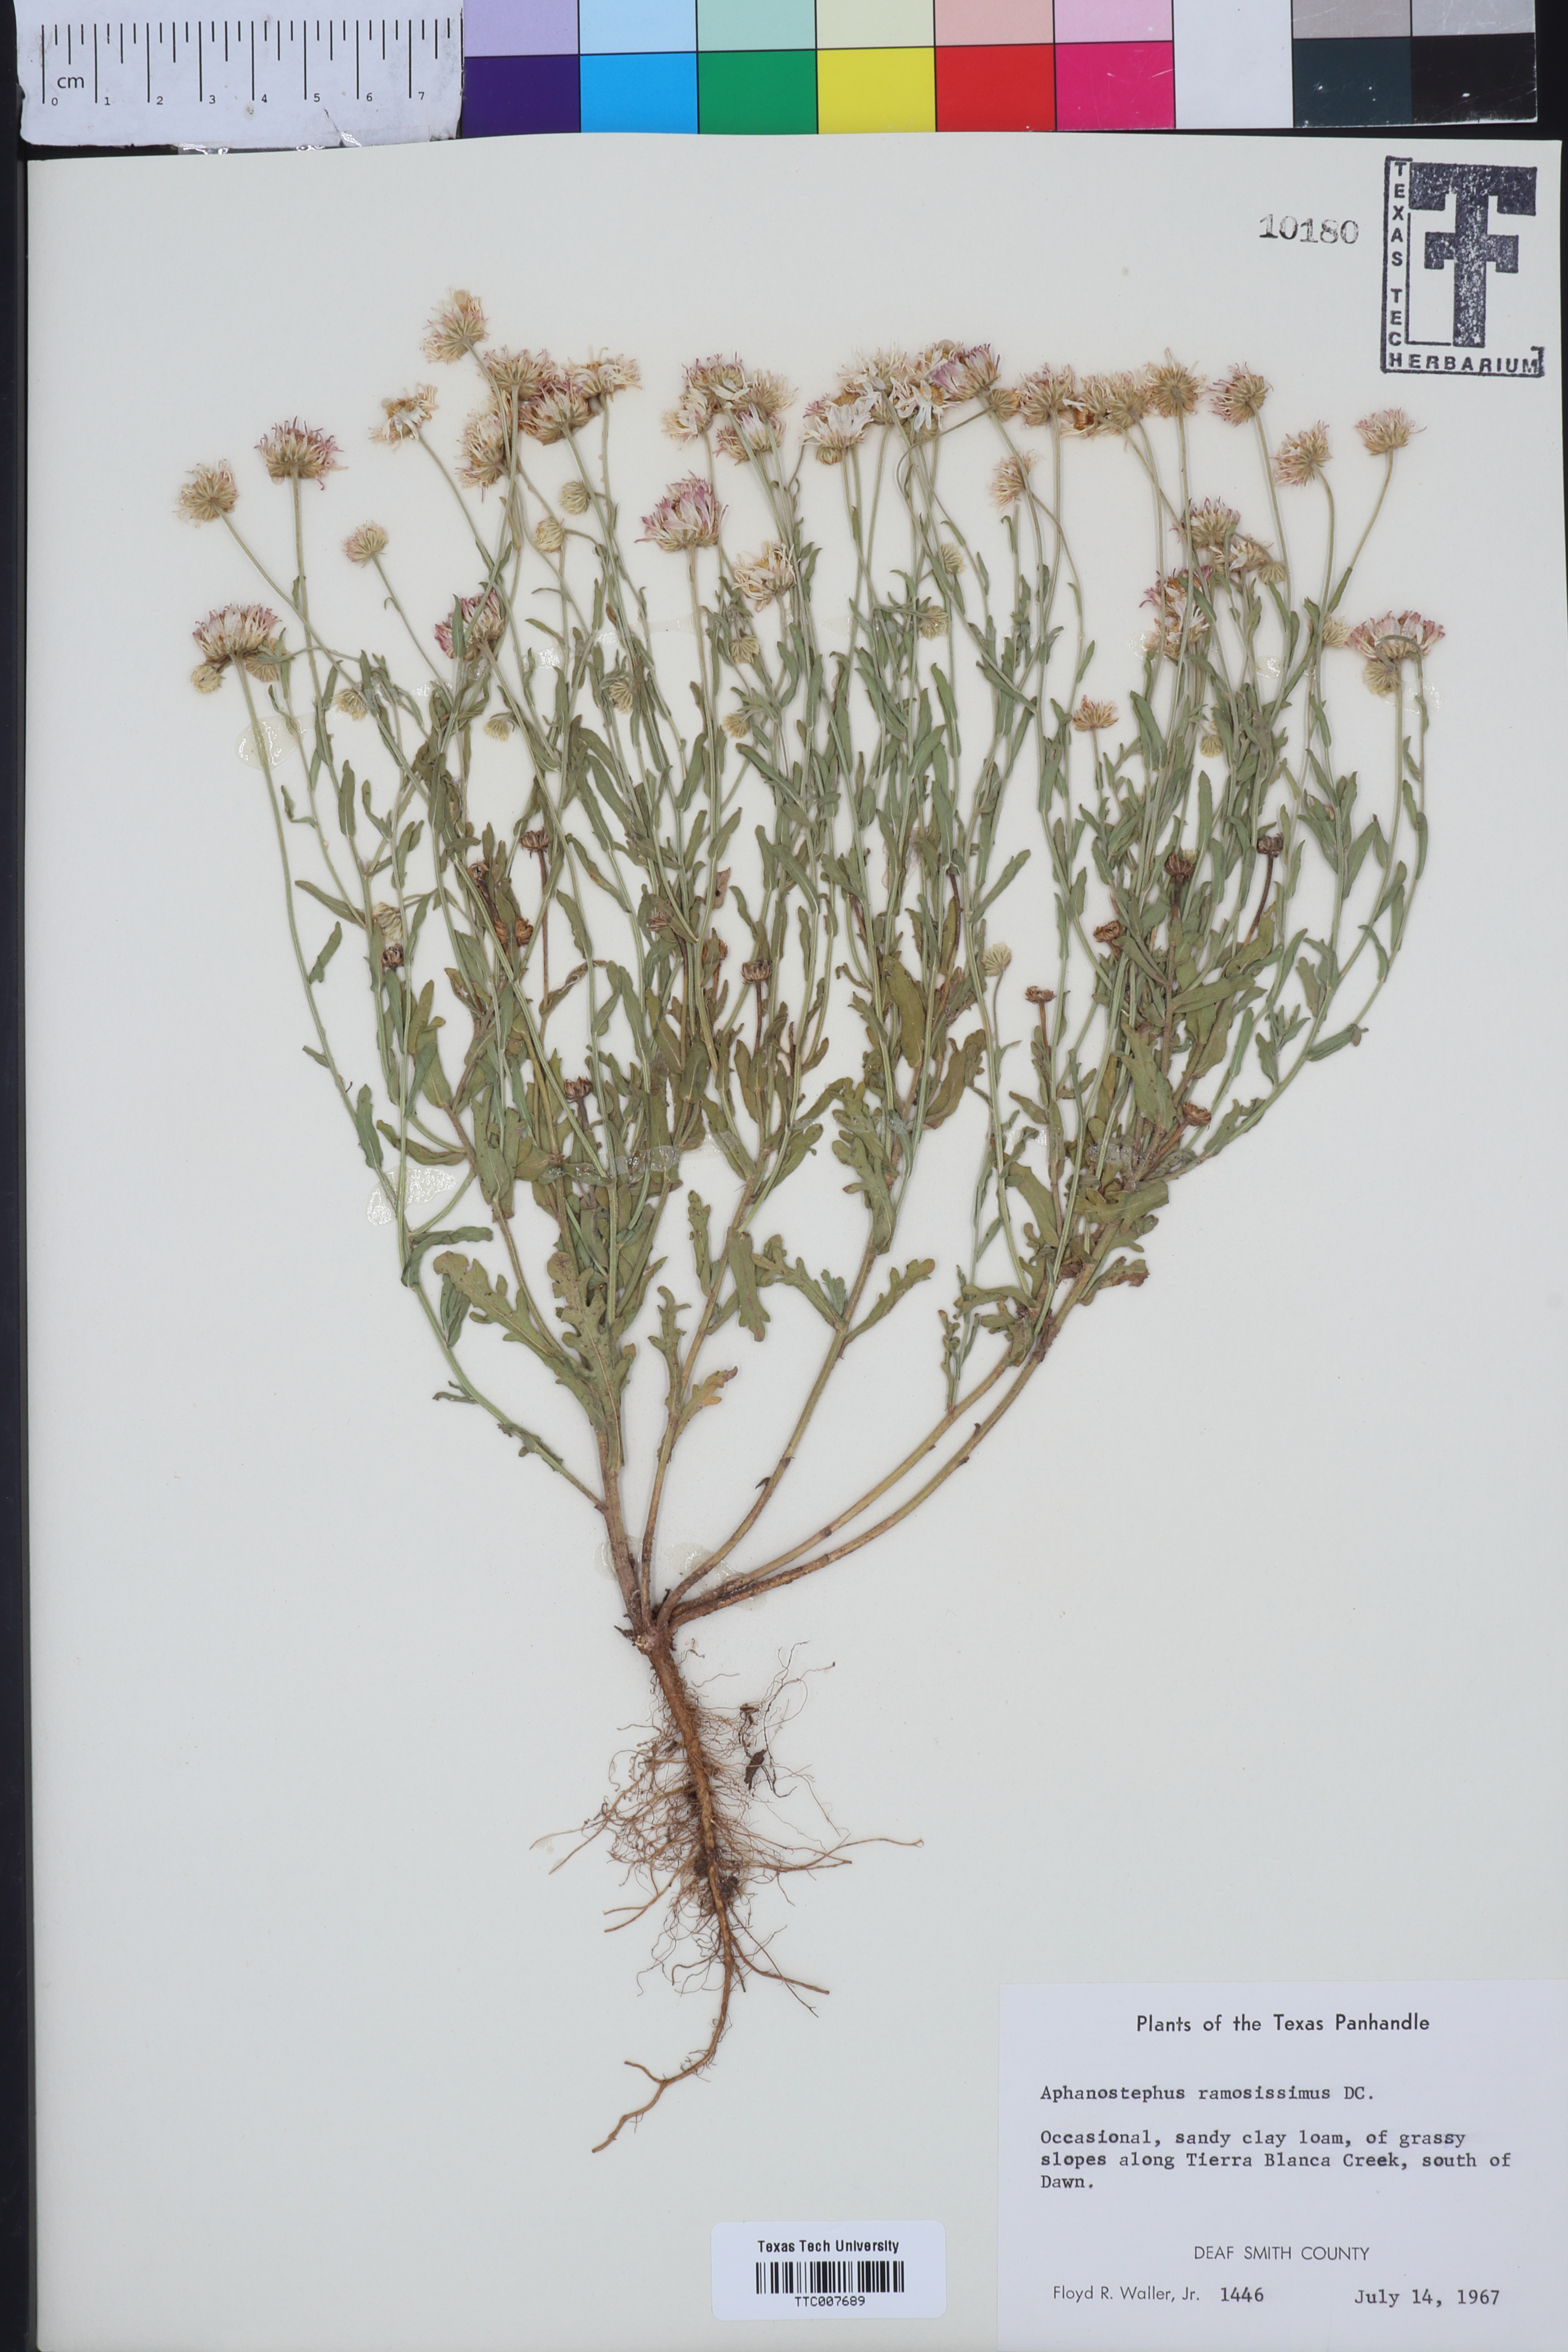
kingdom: Plantae
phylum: Tracheophyta
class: Magnoliopsida
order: Asterales
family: Asteraceae
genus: Aphanostephus
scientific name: Aphanostephus ramosissimus
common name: Plains lazy daisy
